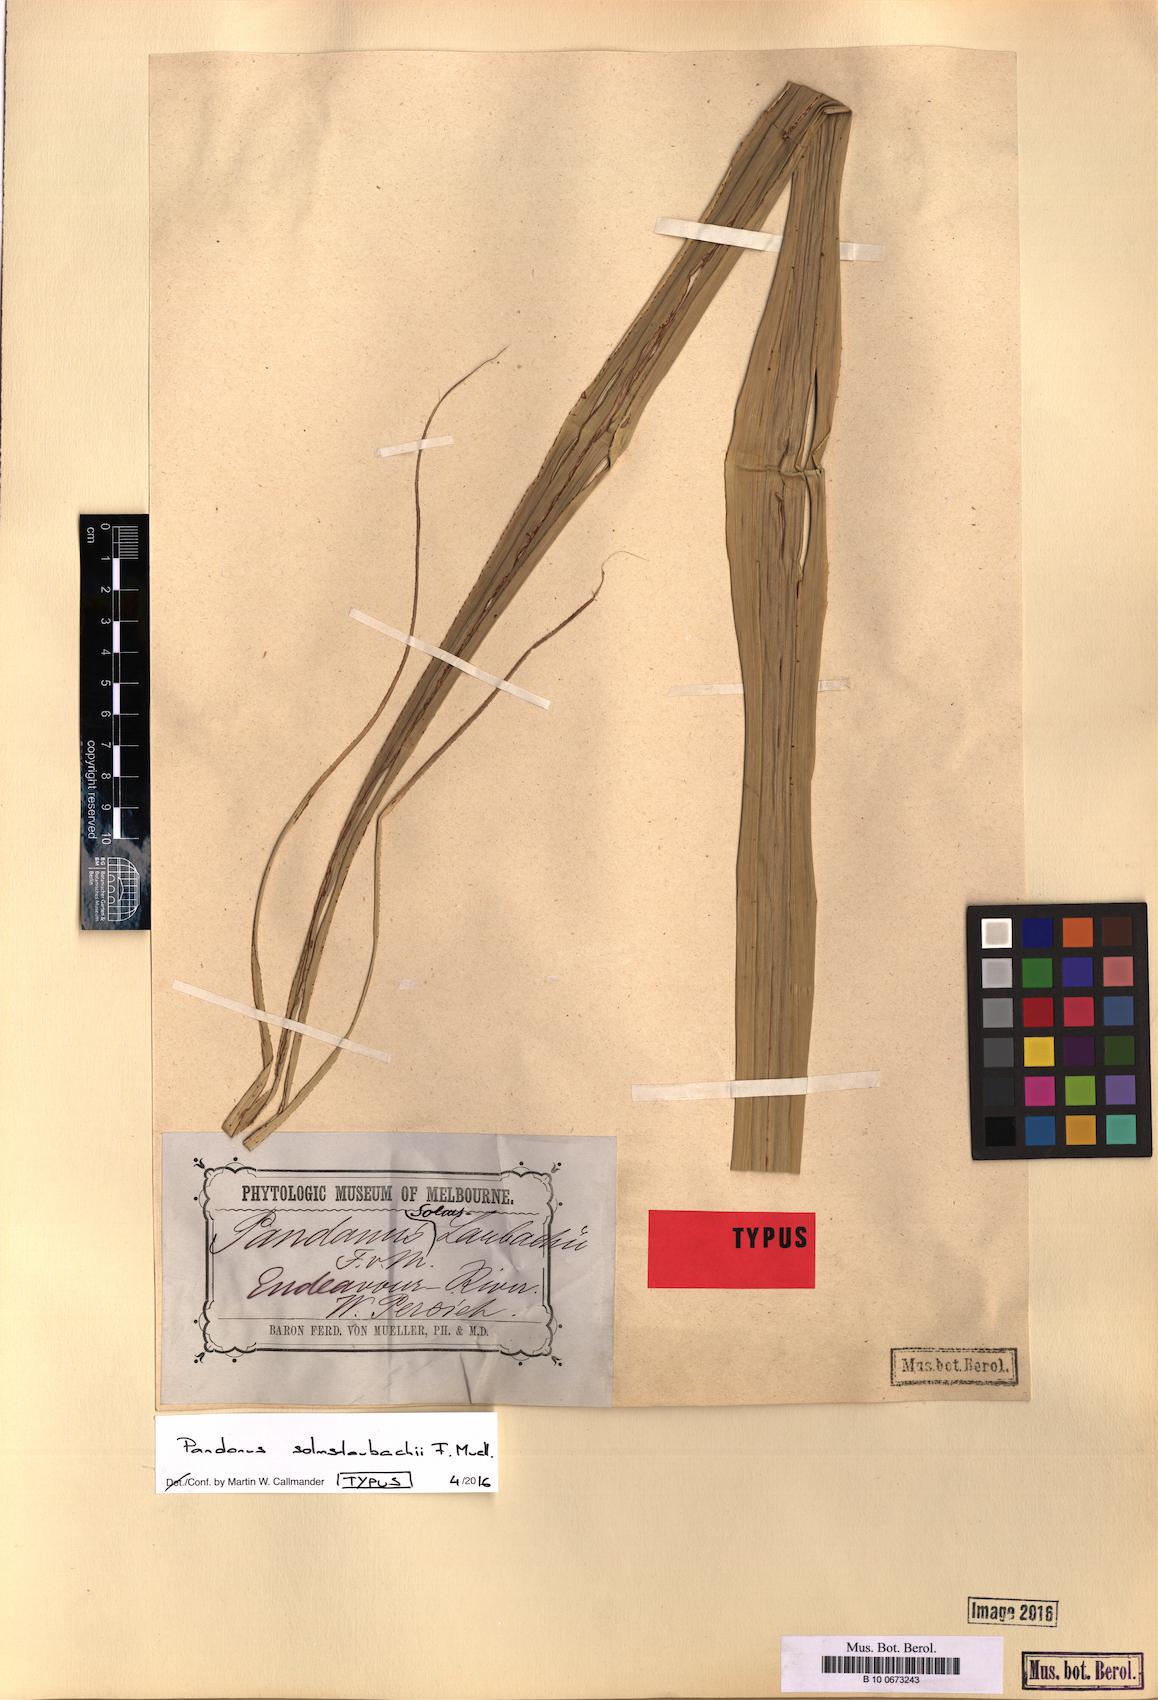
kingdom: Plantae
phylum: Tracheophyta
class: Liliopsida
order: Pandanales
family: Pandanaceae
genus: Pandanus
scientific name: Pandanus solms-laubachii
